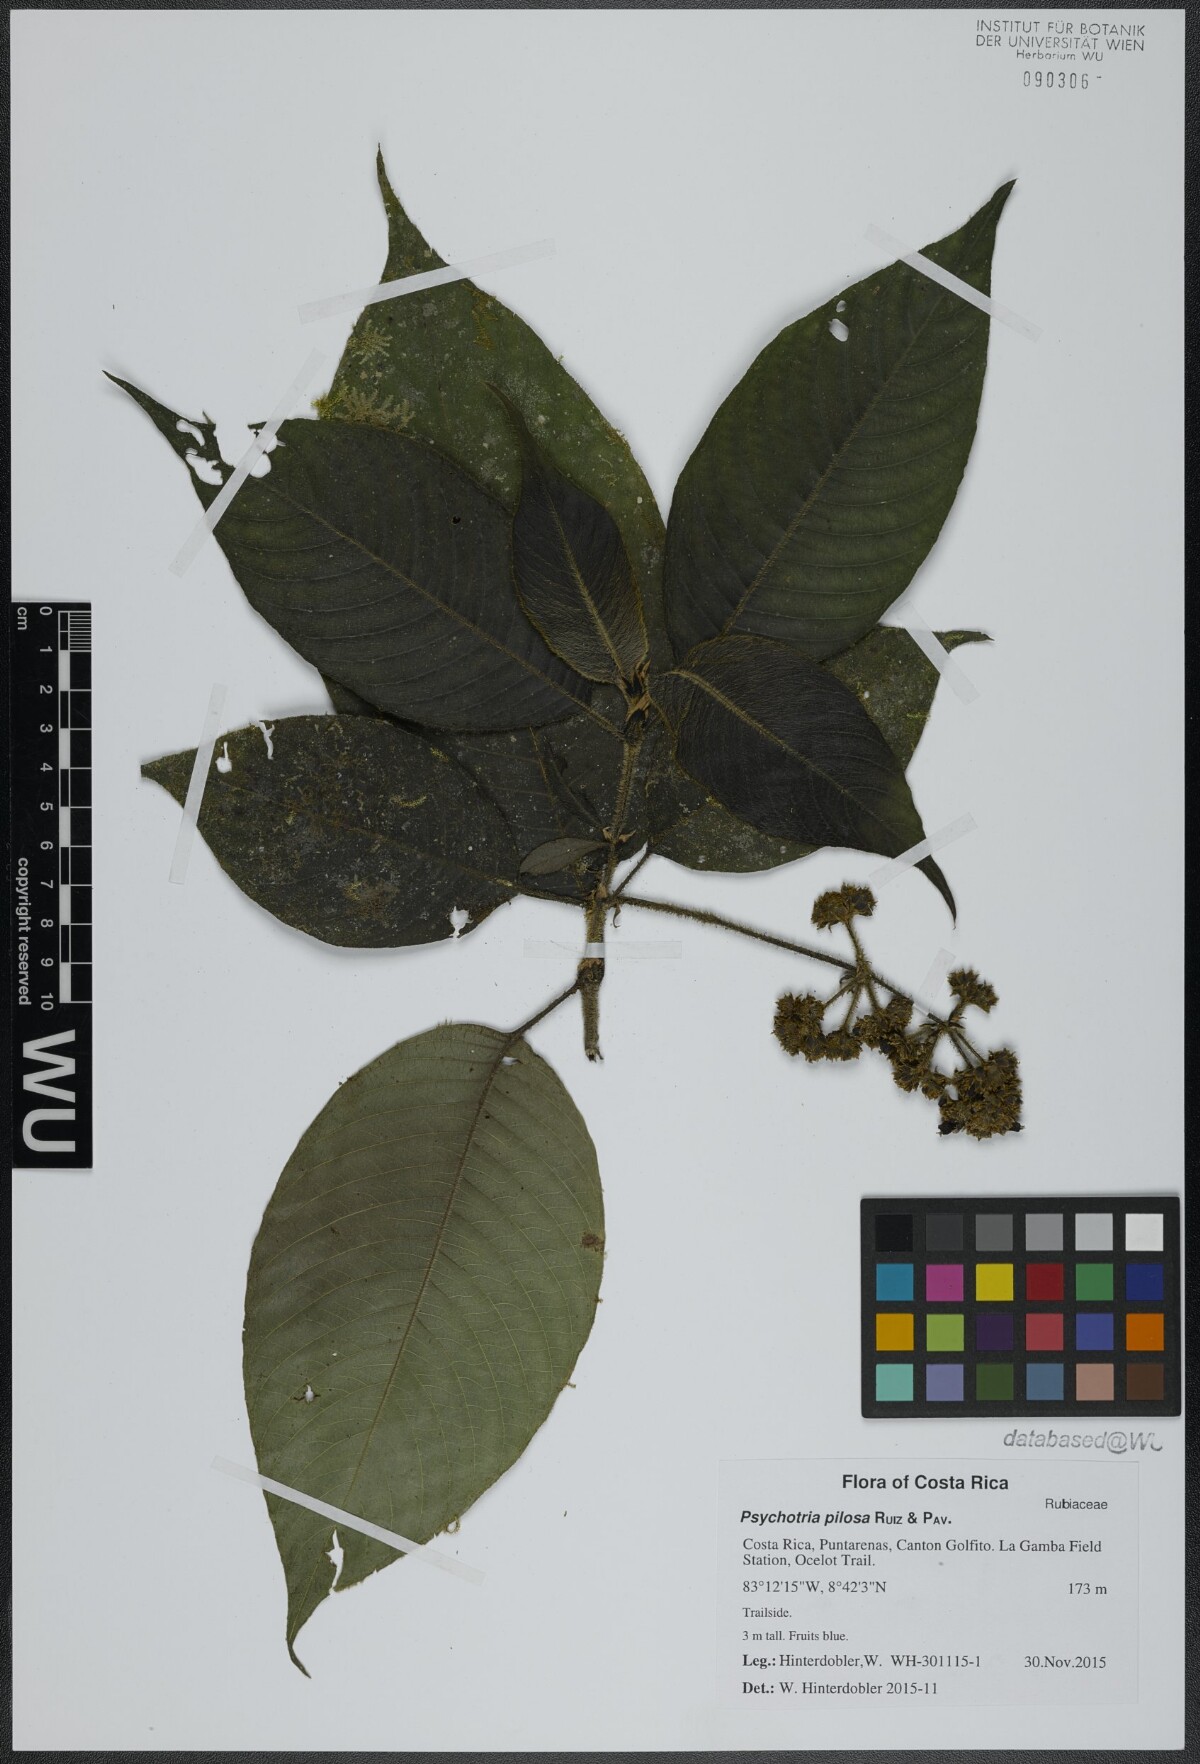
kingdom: Plantae
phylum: Tracheophyta
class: Magnoliopsida
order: Gentianales
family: Rubiaceae
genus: Palicourea
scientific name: Palicourea pilosa
